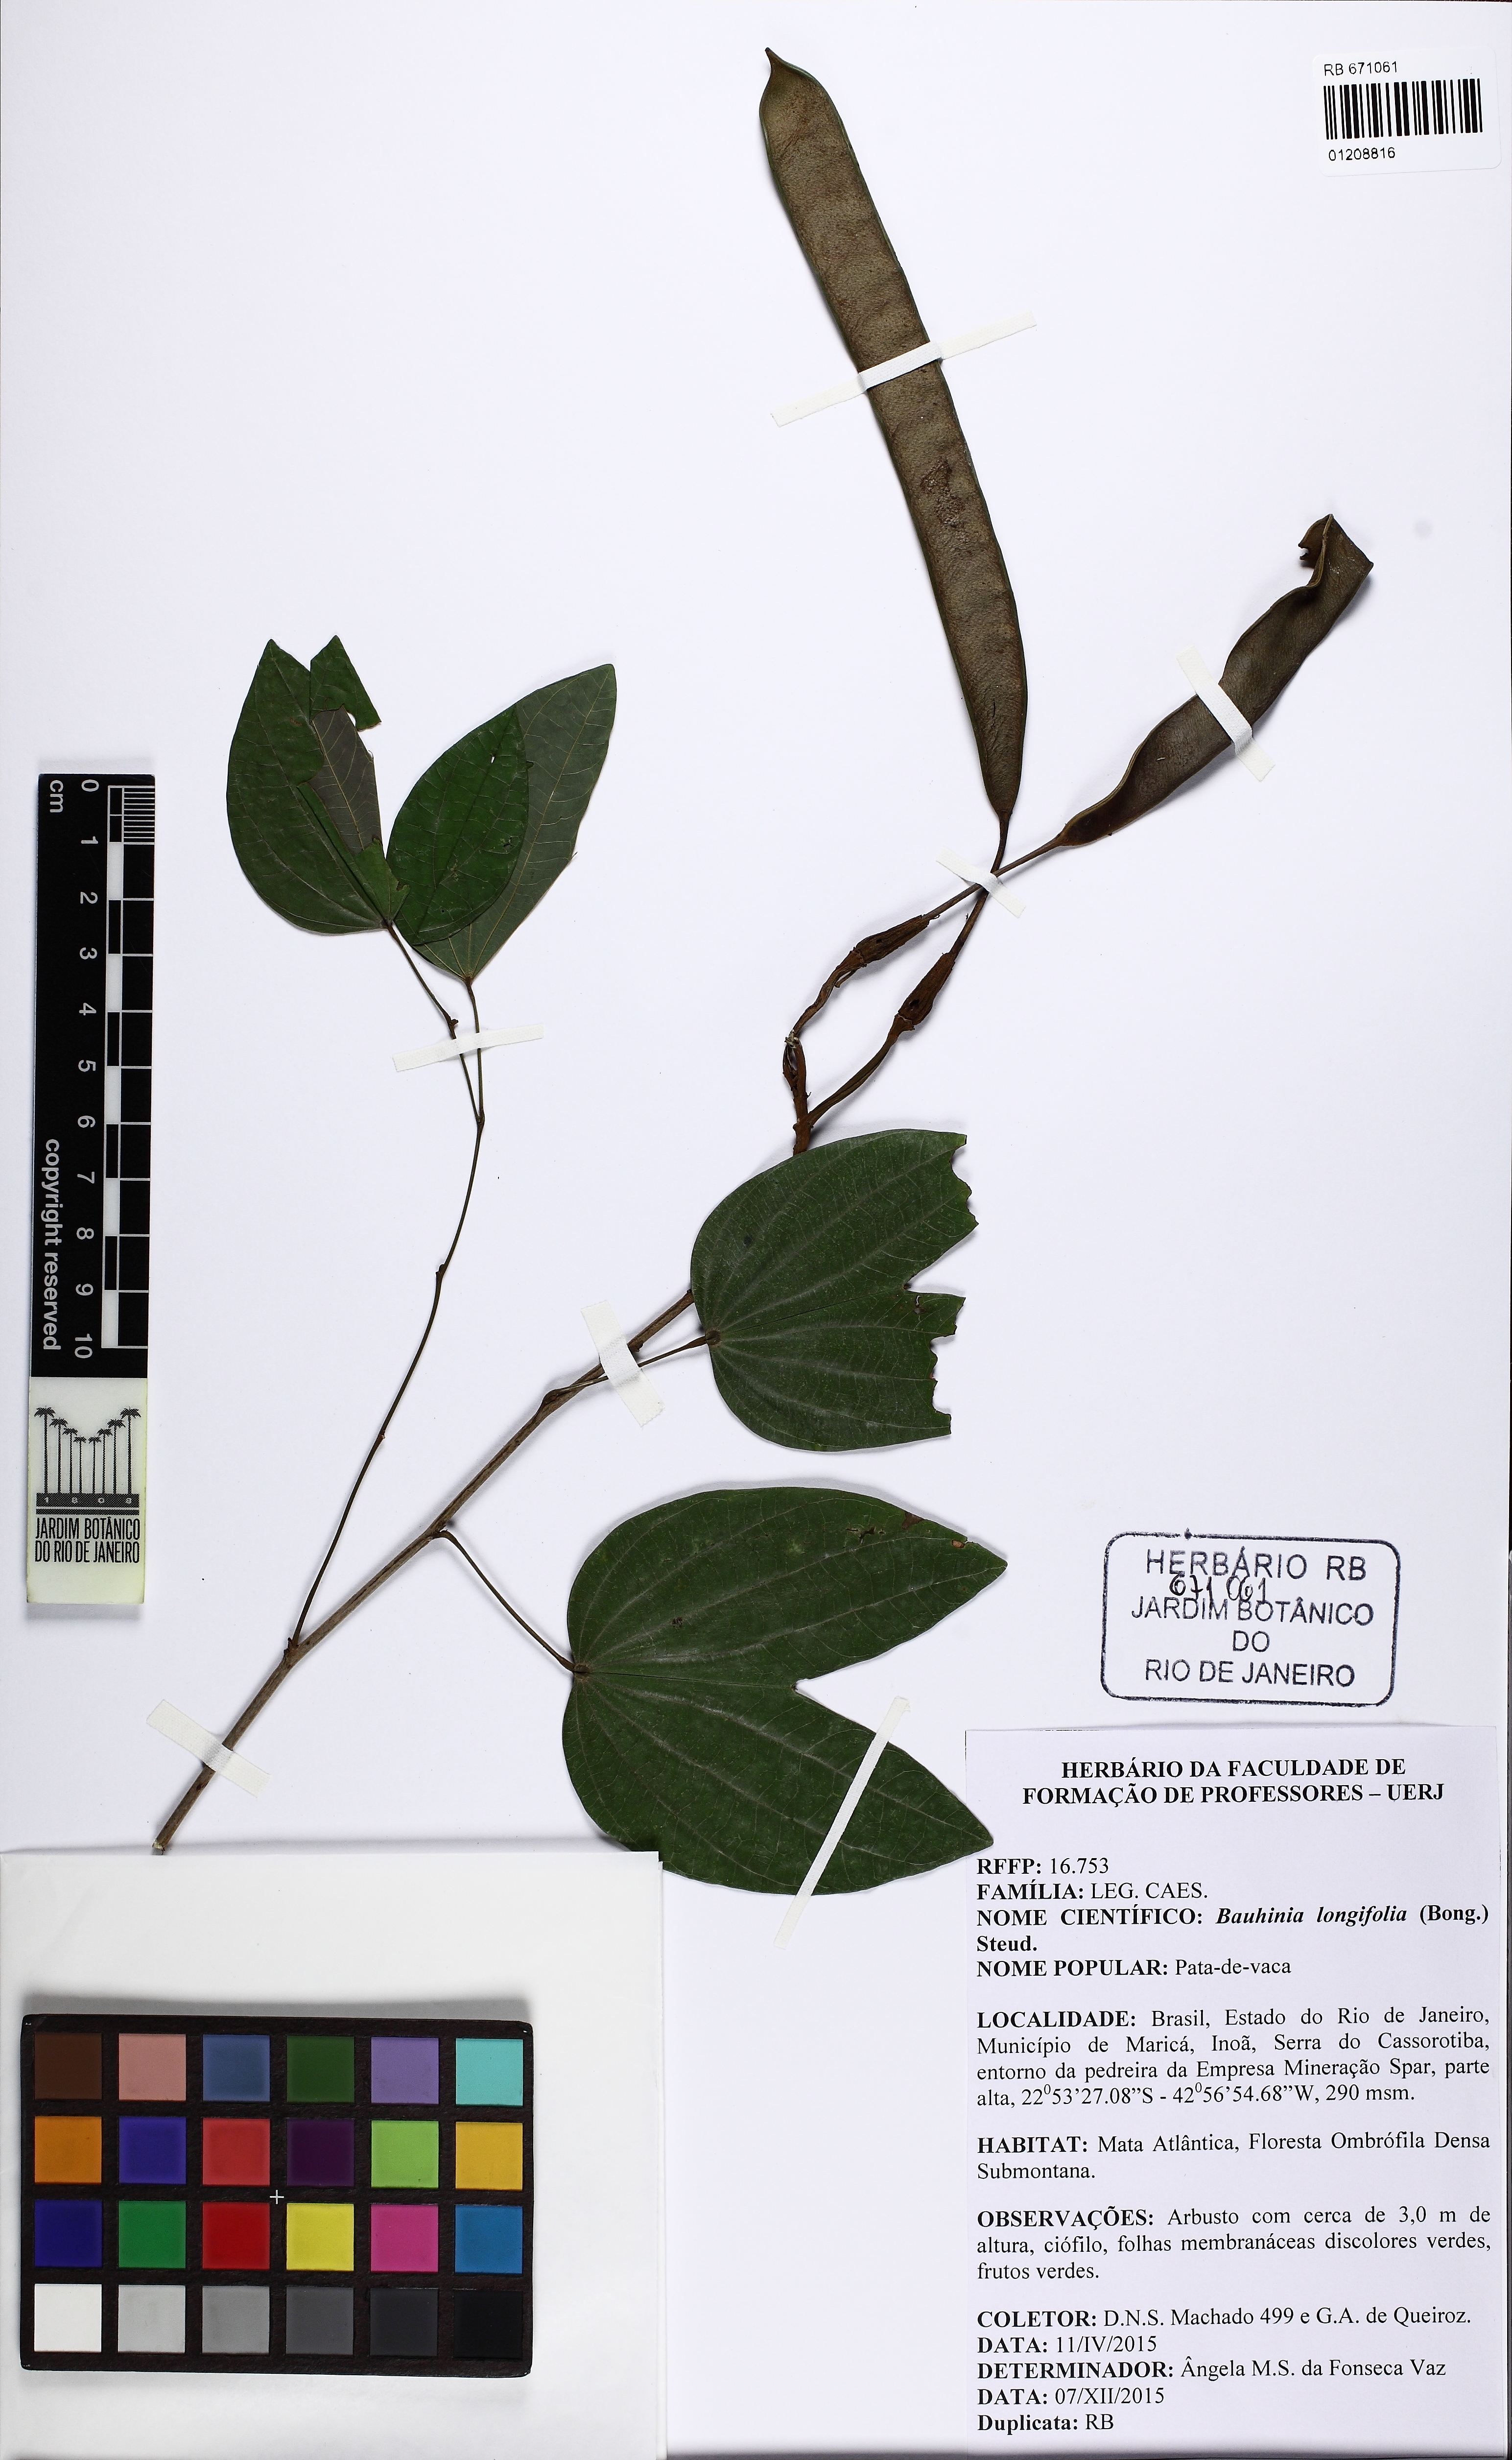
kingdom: Plantae
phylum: Tracheophyta
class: Magnoliopsida
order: Fabales
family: Fabaceae
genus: Bauhinia
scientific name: Bauhinia longifolia
